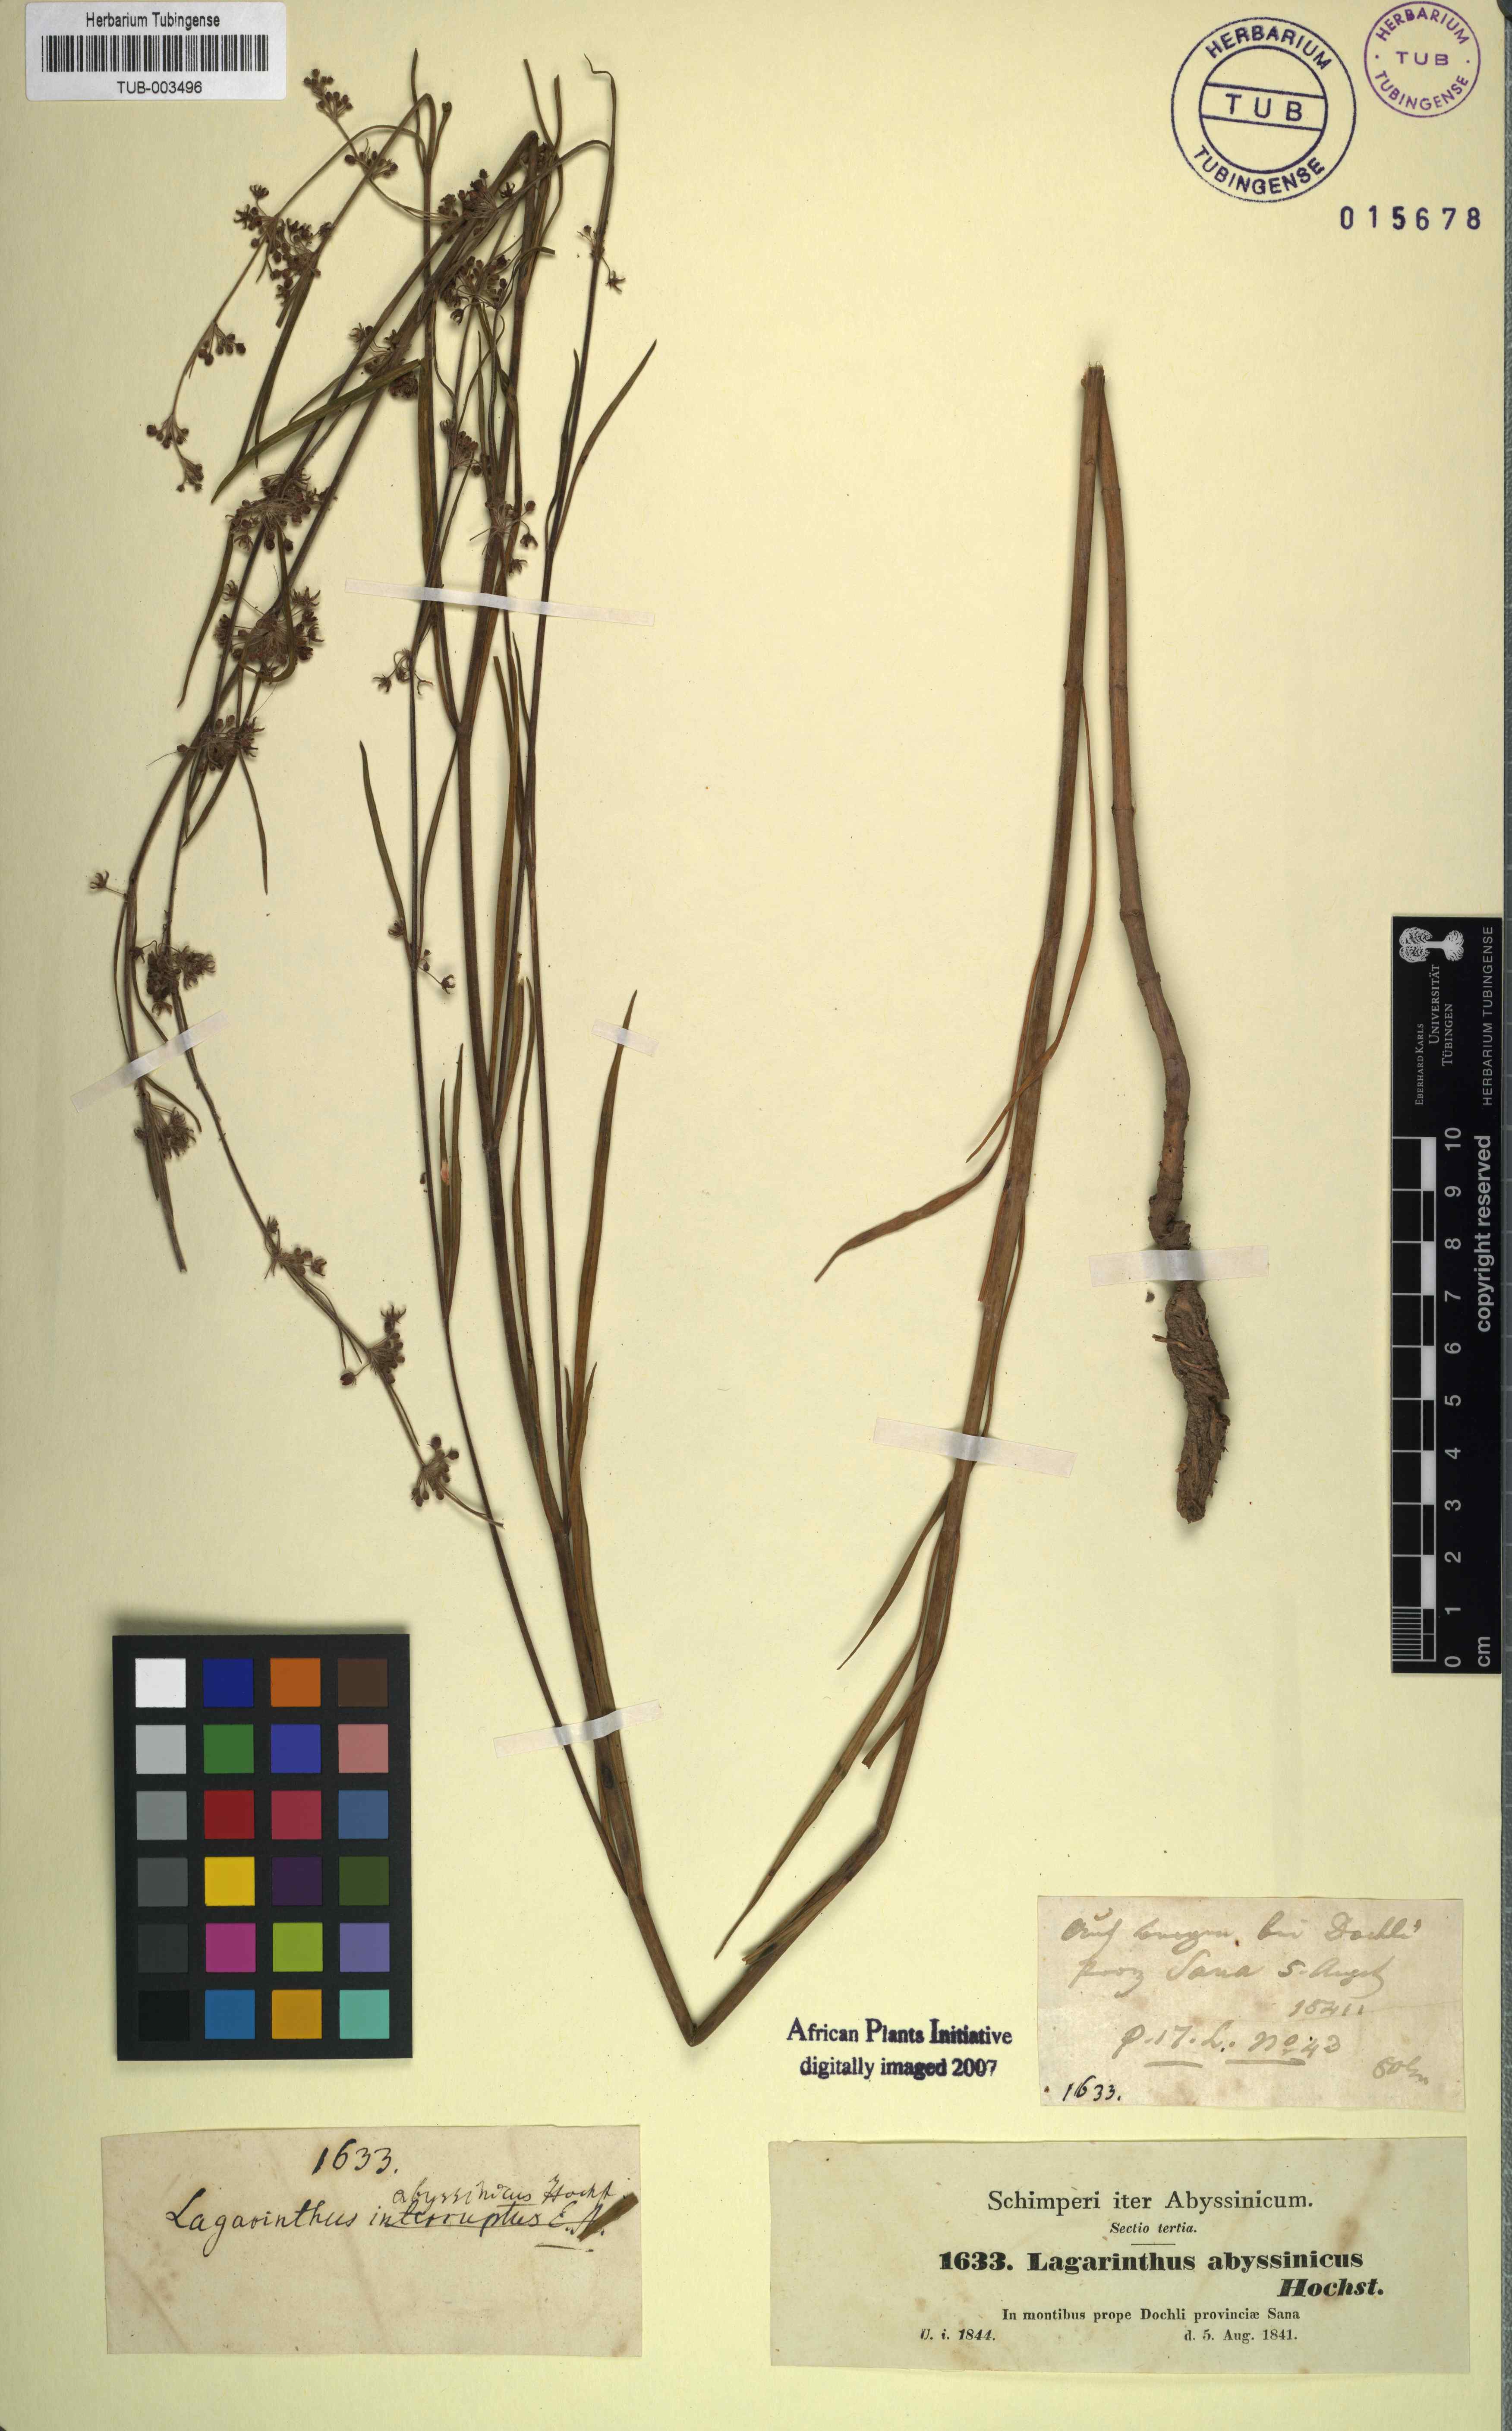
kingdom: Plantae
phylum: Tracheophyta
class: Magnoliopsida
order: Gentianales
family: Apocynaceae
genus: Aspidoglossum
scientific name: Aspidoglossum interruptum
